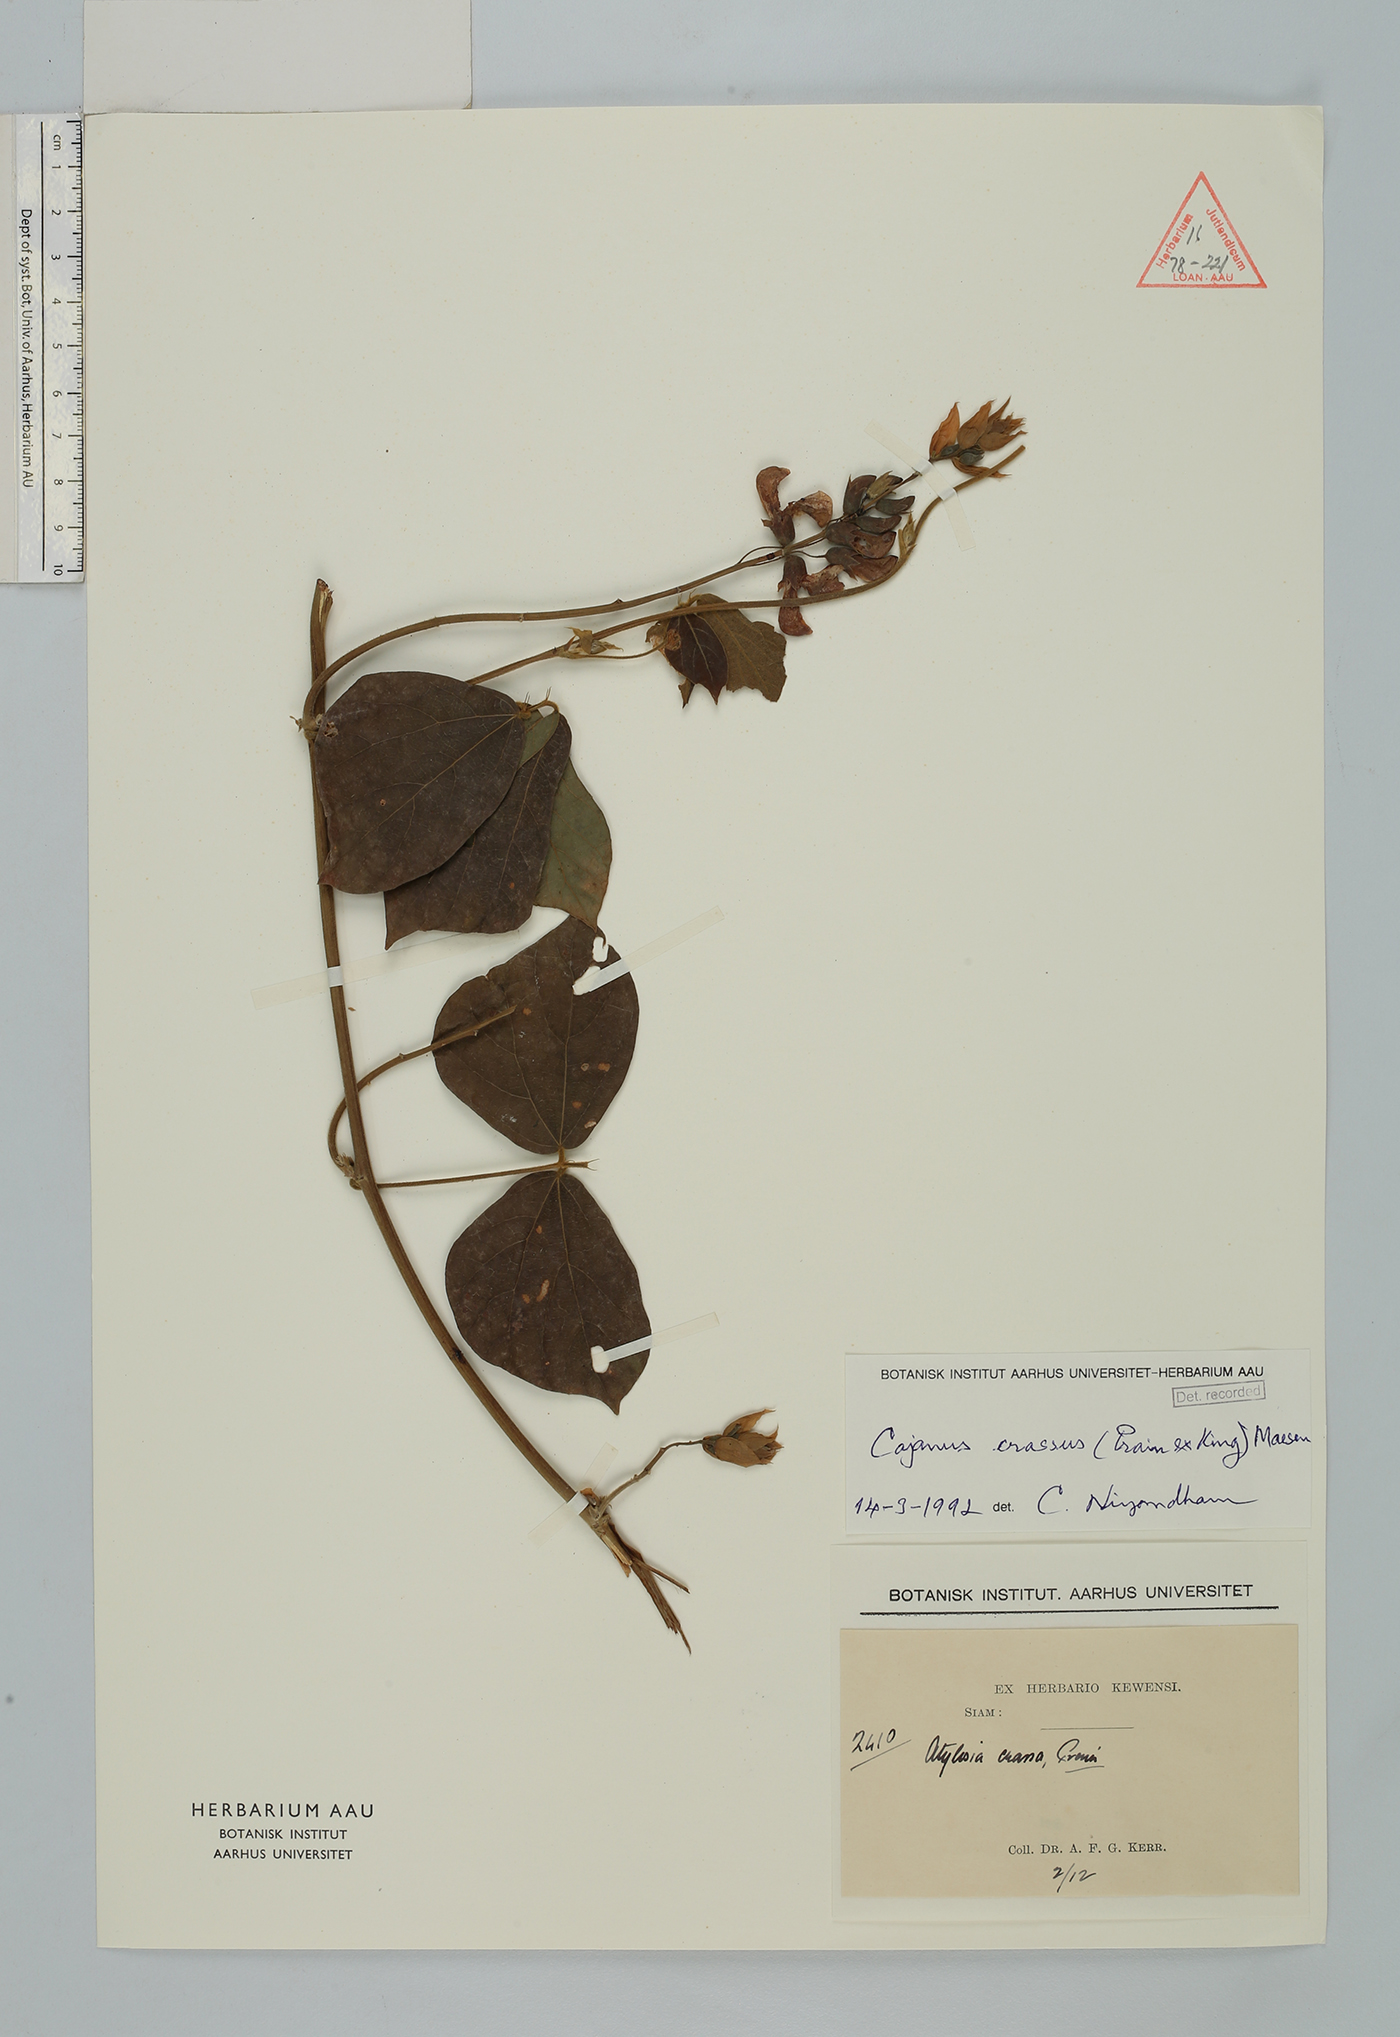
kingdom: Plantae
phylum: Tracheophyta
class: Magnoliopsida
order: Fabales
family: Fabaceae
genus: Cajanus
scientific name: Cajanus crassus
